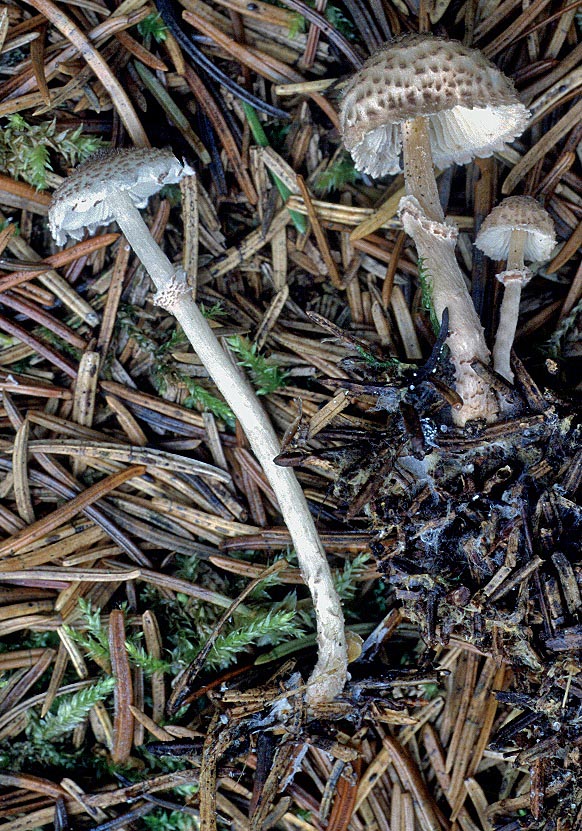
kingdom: Fungi
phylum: Basidiomycota
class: Agaricomycetes
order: Agaricales
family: Agaricaceae
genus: Lepiota
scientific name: Lepiota felina
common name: sortskællet parasolhat
